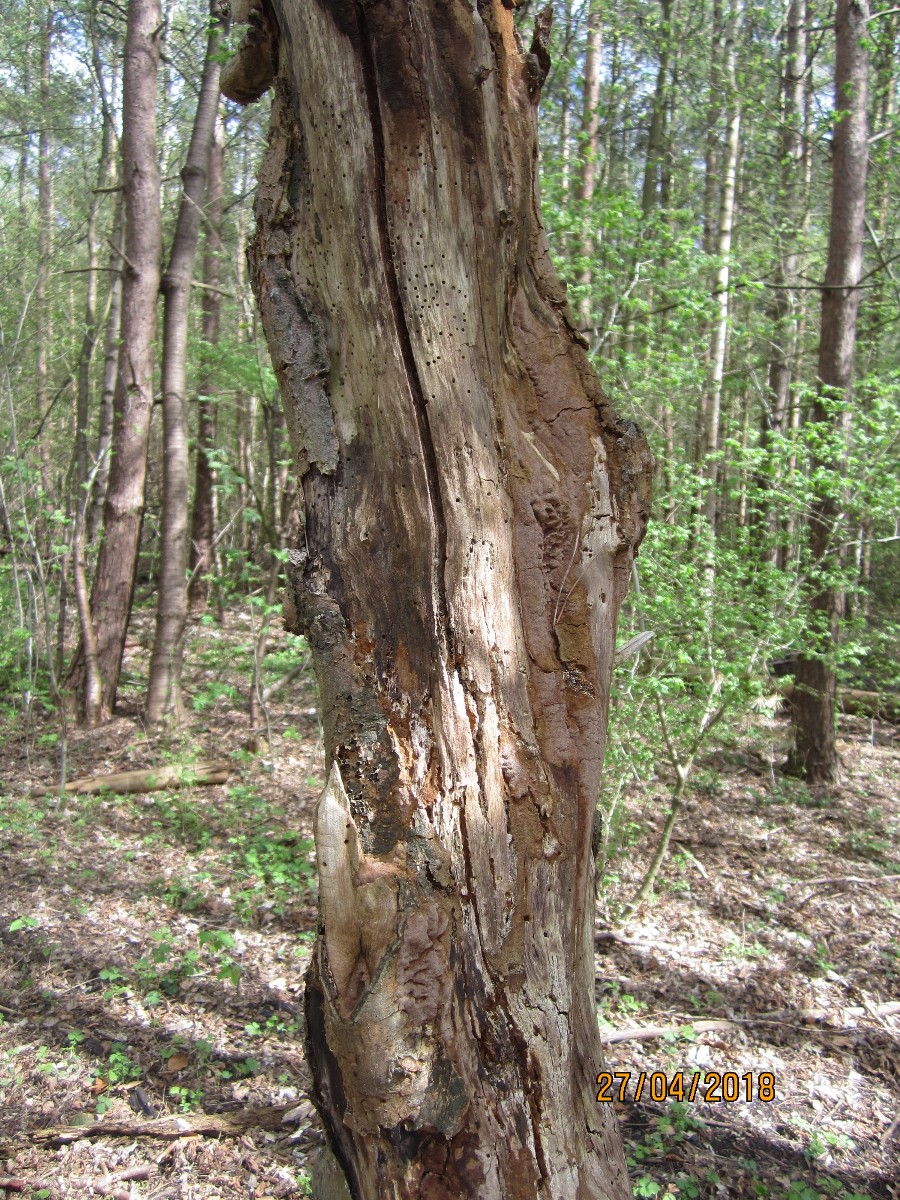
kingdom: Fungi
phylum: Basidiomycota
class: Agaricomycetes
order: Hymenochaetales
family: Hymenochaetaceae
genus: Fuscoporia
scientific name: Fuscoporia ferruginosa
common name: rustbrun ildporesvamp
